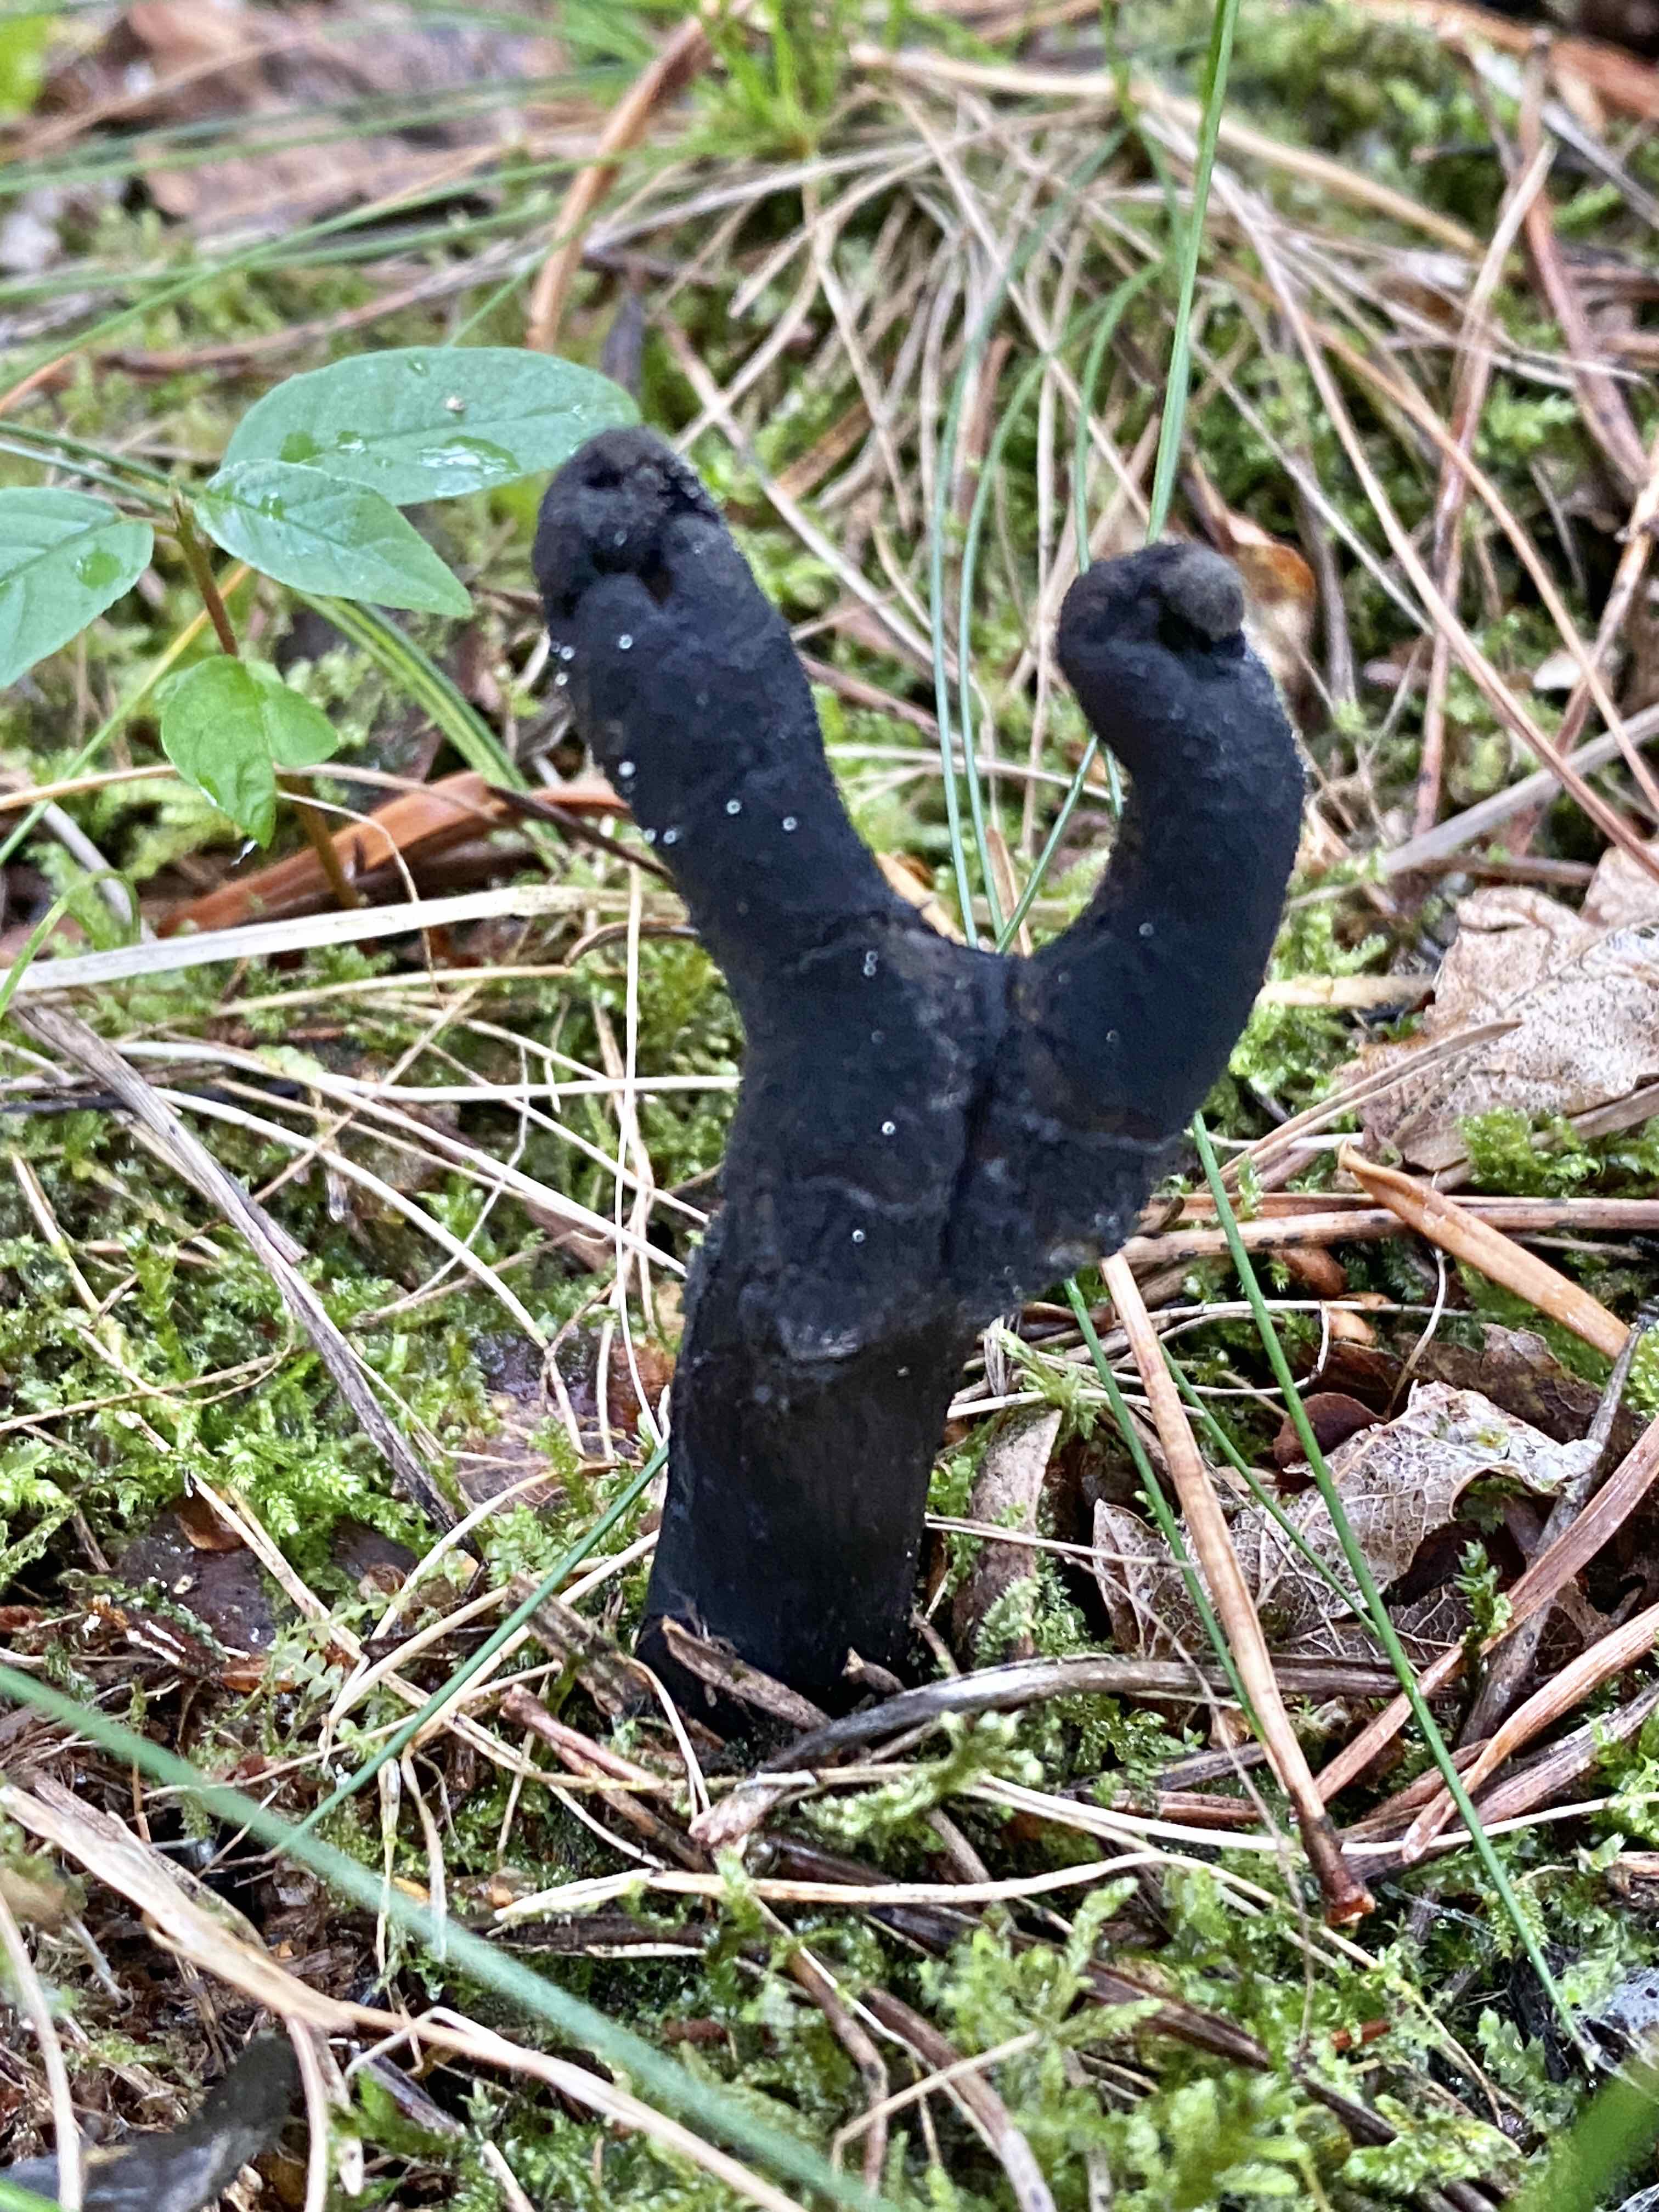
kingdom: Fungi
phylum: Ascomycota
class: Sordariomycetes
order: Hypocreales
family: Ophiocordycipitaceae
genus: Tolypocladium
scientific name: Tolypocladium ophioglossoides
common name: slank snyltekølle
